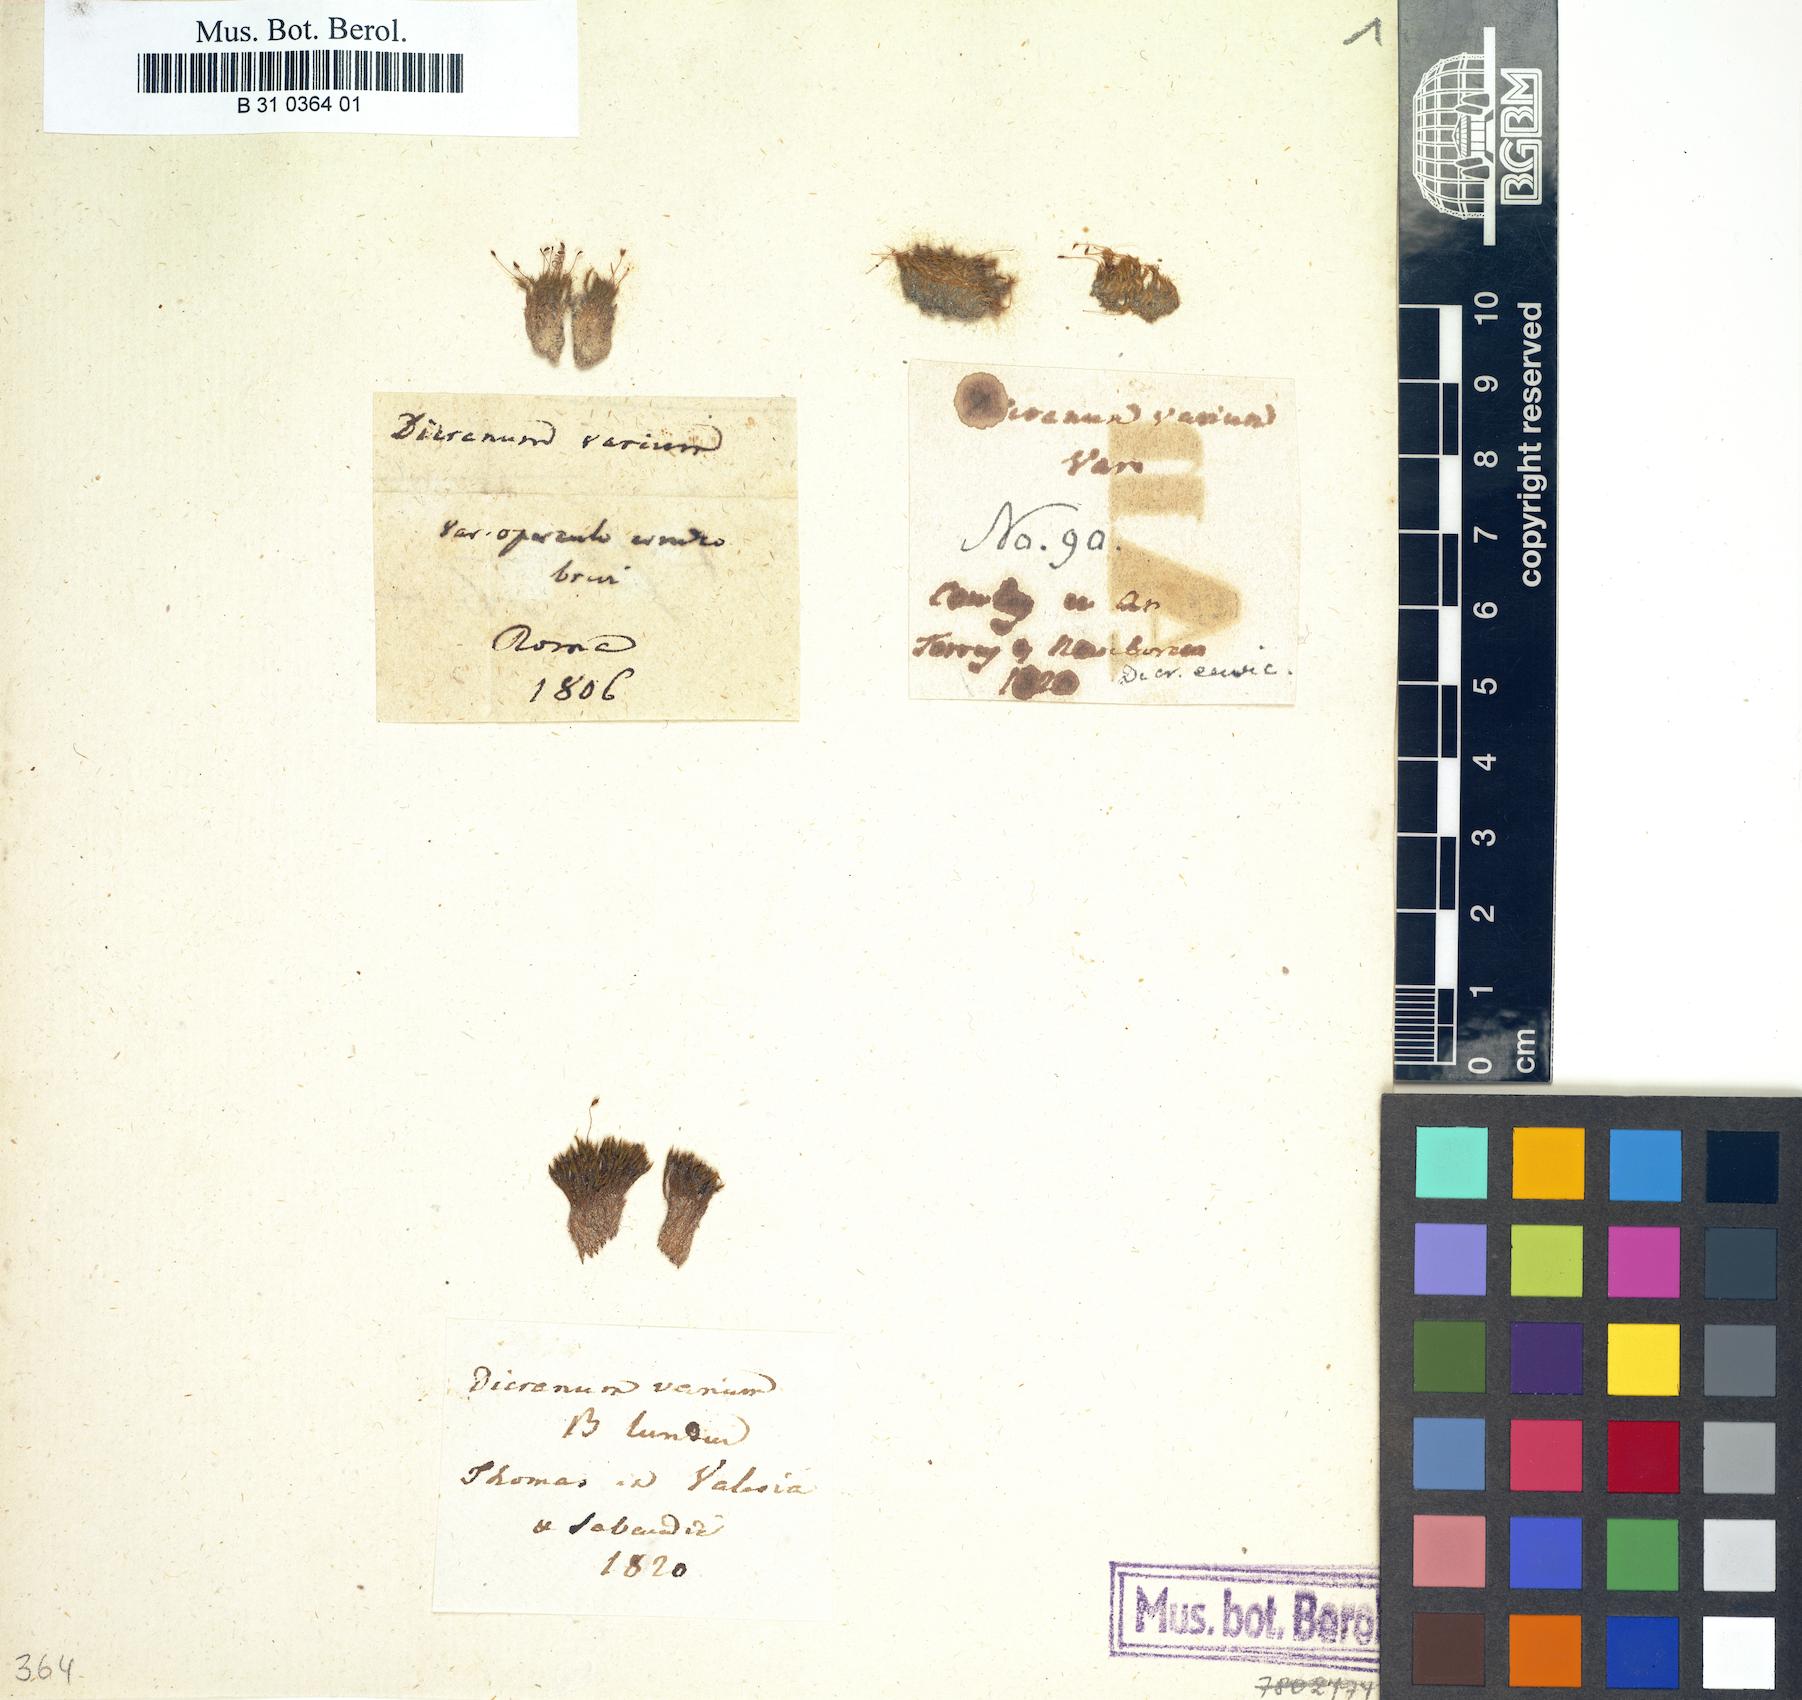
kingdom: Plantae
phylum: Bryophyta
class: Bryopsida
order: Dicranales
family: Dicranellaceae
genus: Dicranella
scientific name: Dicranella varia
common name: Variable forklet moss
